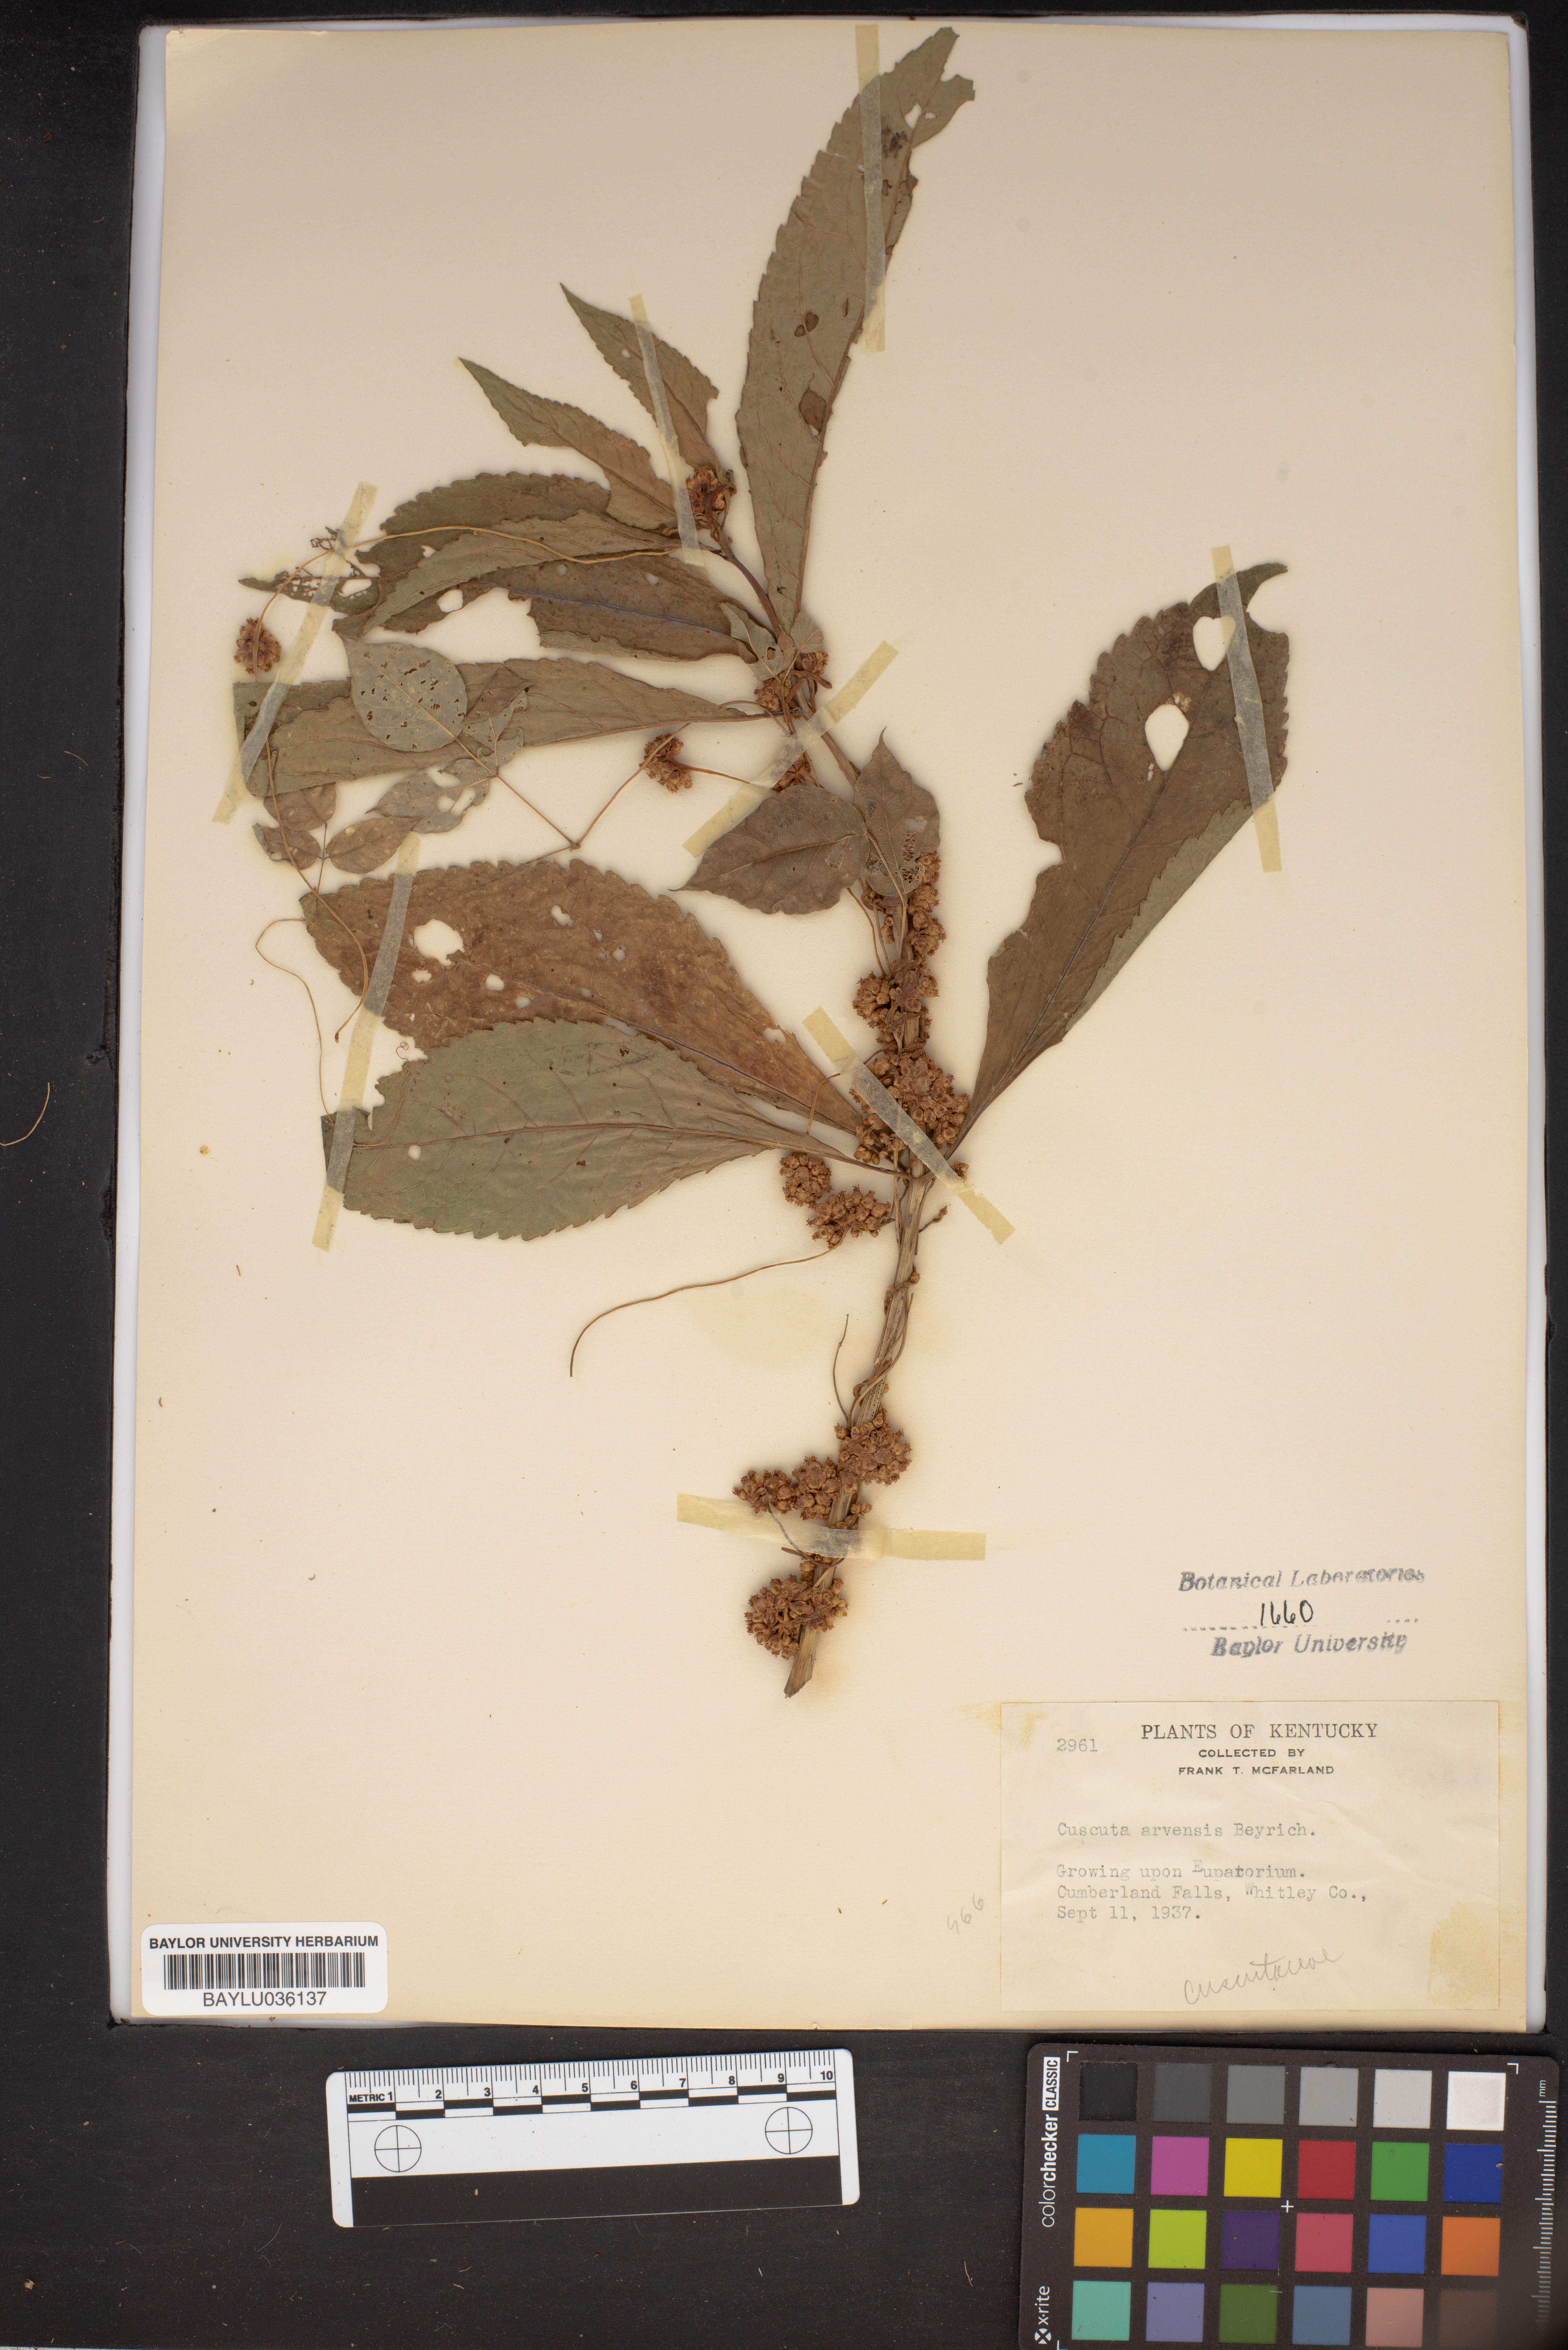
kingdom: Plantae
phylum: Tracheophyta
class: Magnoliopsida
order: Solanales
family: Convolvulaceae
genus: Cuscuta
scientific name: Cuscuta campestris
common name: Yellow dodder
